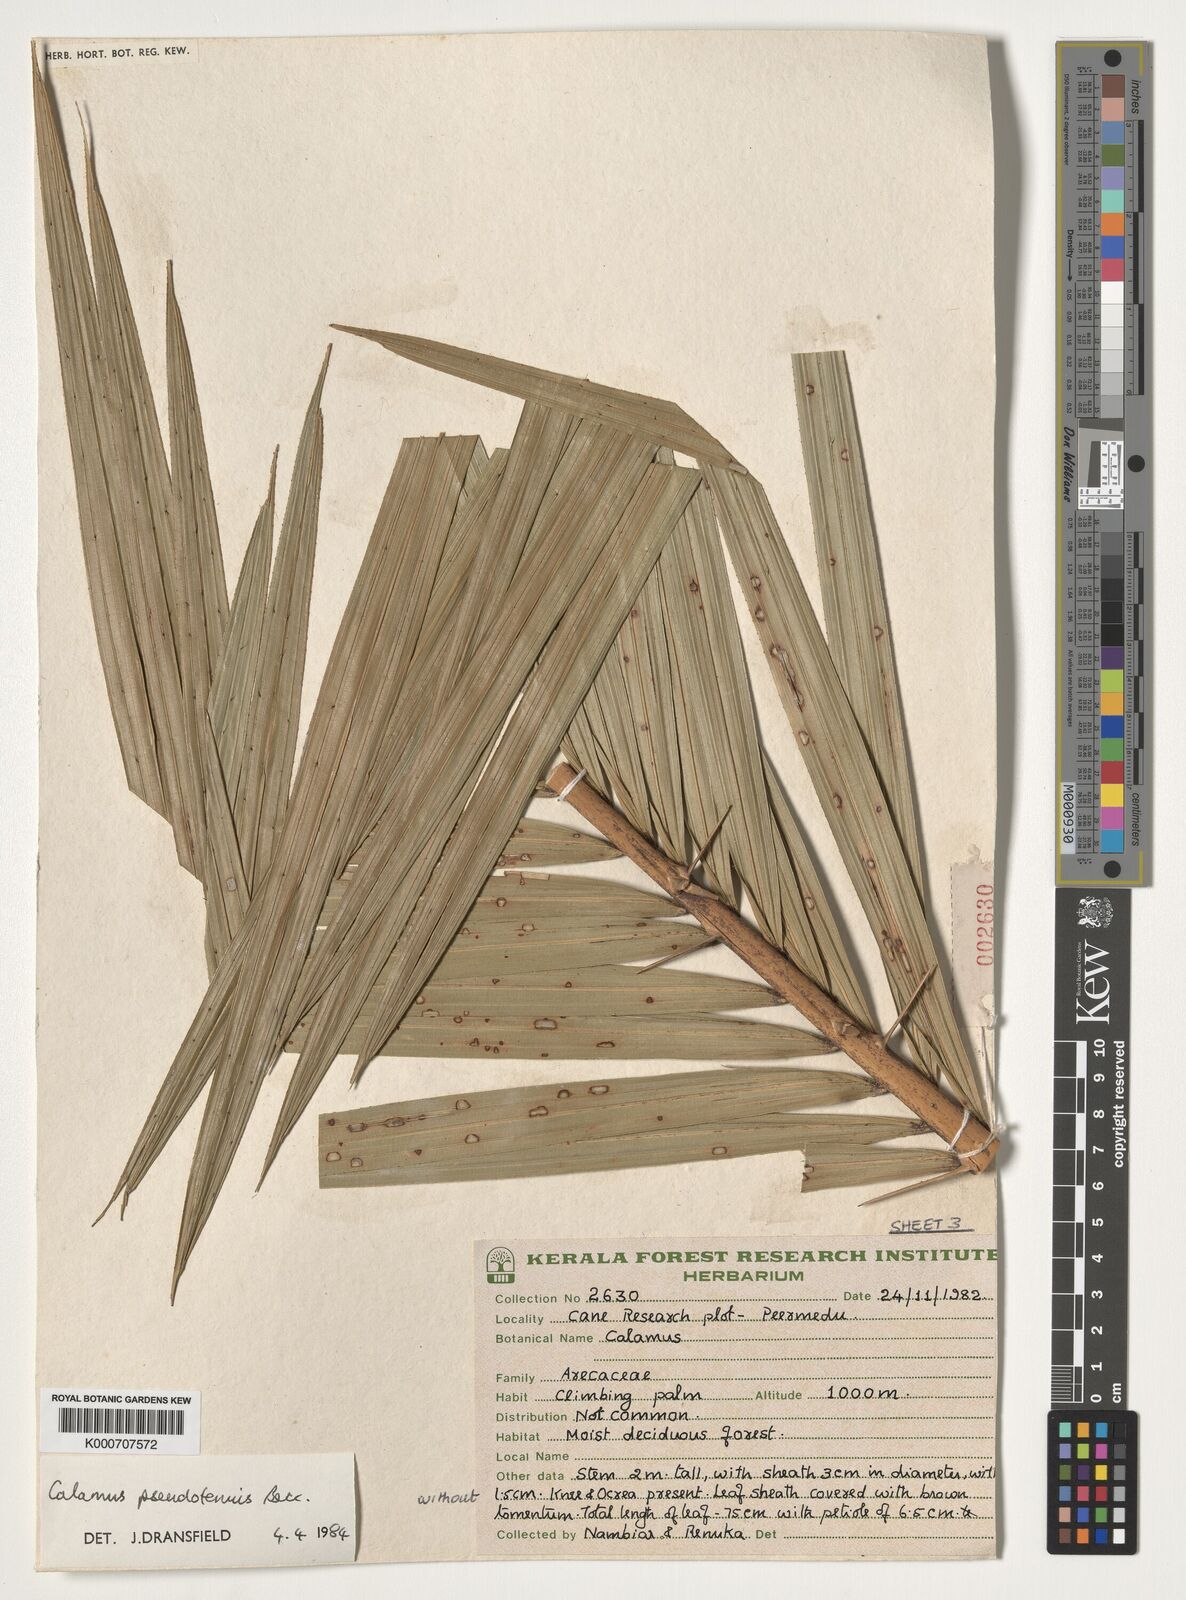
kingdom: Plantae
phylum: Tracheophyta
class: Liliopsida
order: Arecales
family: Arecaceae
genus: Calamus
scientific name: Calamus pseudotenuis
